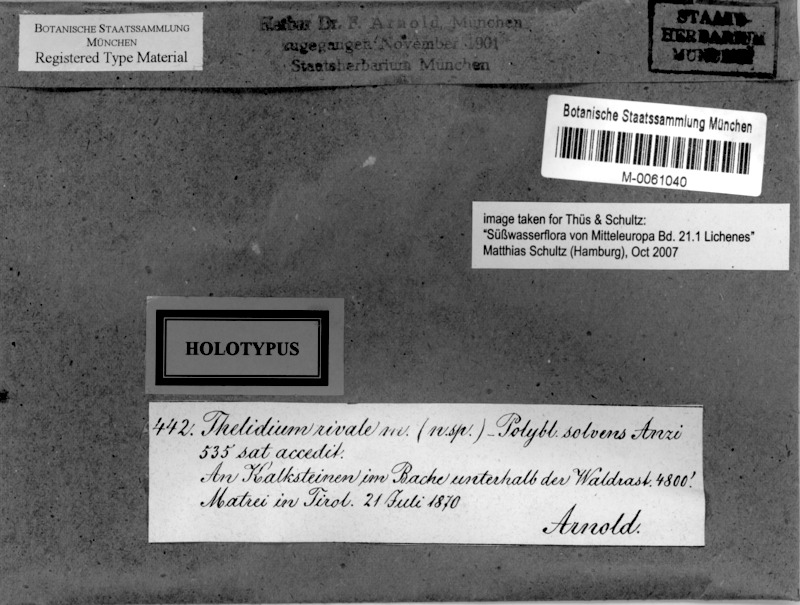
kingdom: Fungi
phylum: Ascomycota
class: Eurotiomycetes
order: Verrucariales
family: Verrucariaceae
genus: Polyblastia
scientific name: Polyblastia ardesiaca
